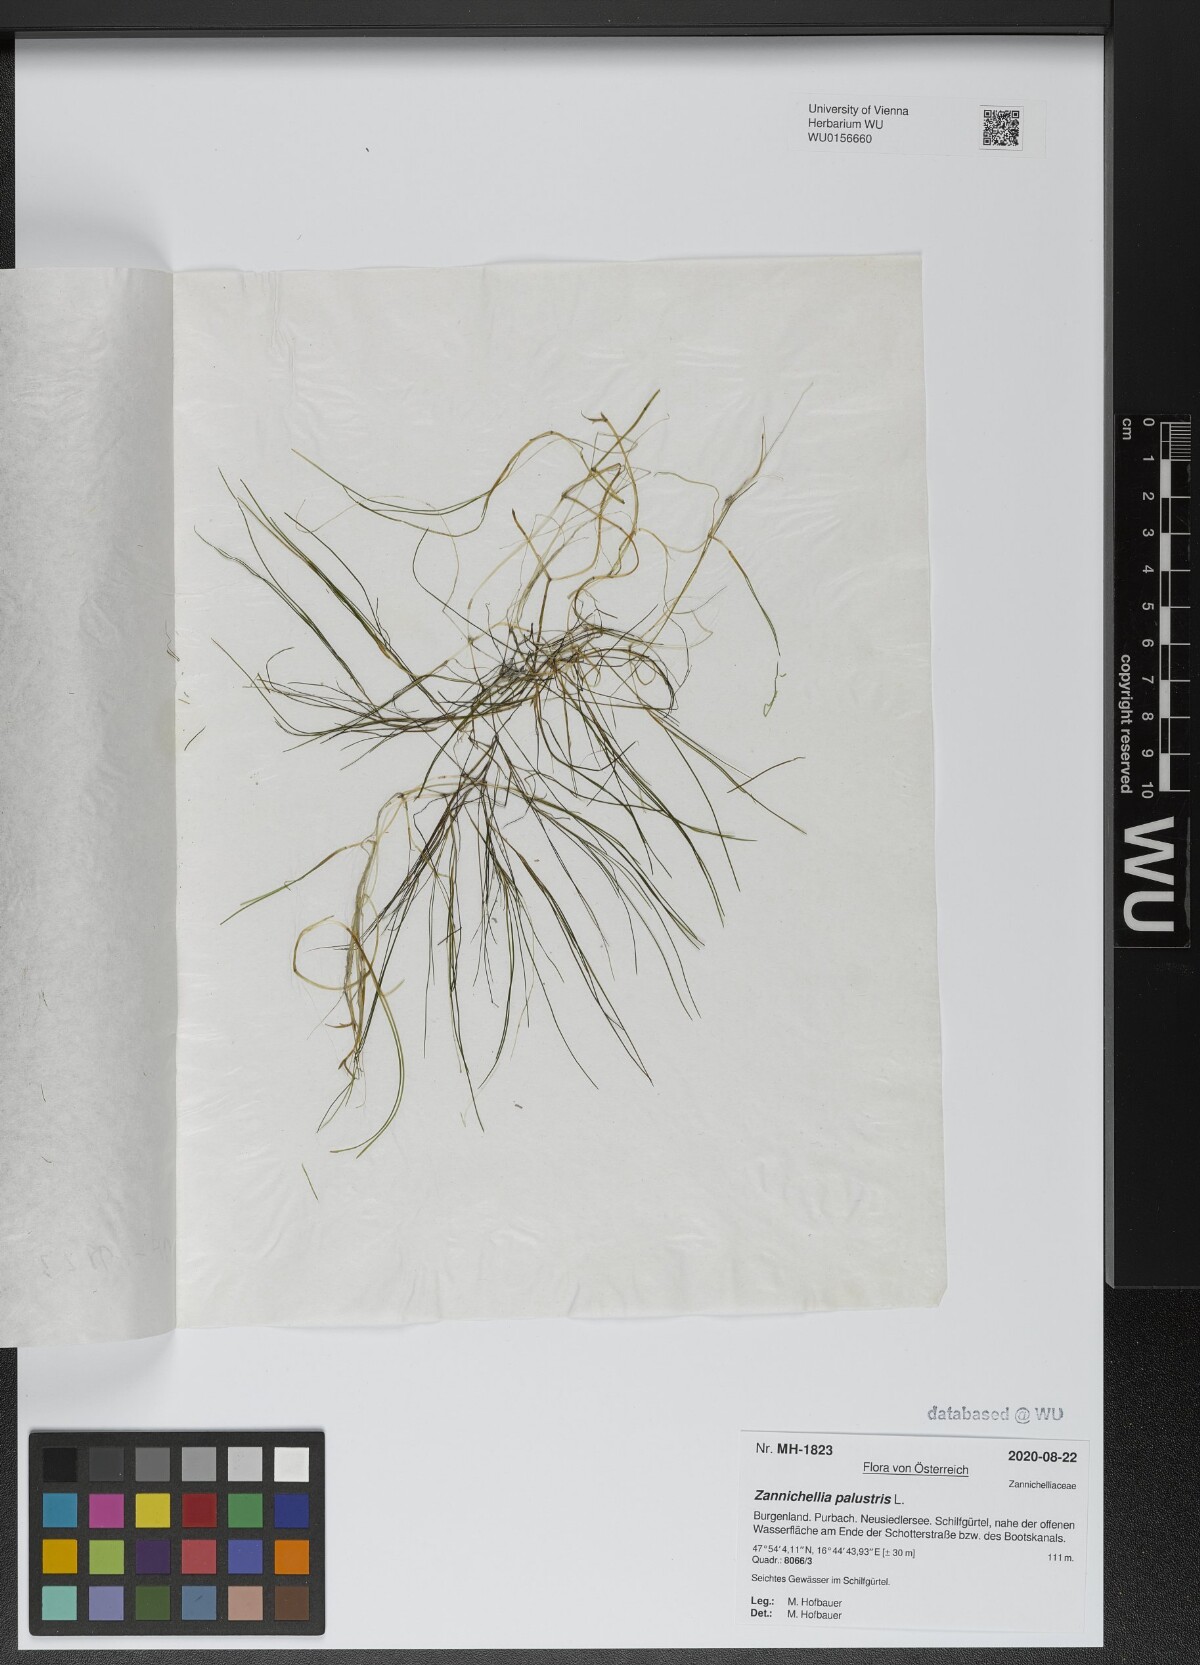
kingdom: Plantae
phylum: Tracheophyta
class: Liliopsida
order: Alismatales
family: Potamogetonaceae
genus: Zannichellia
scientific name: Zannichellia palustris
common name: Horned pondweed
